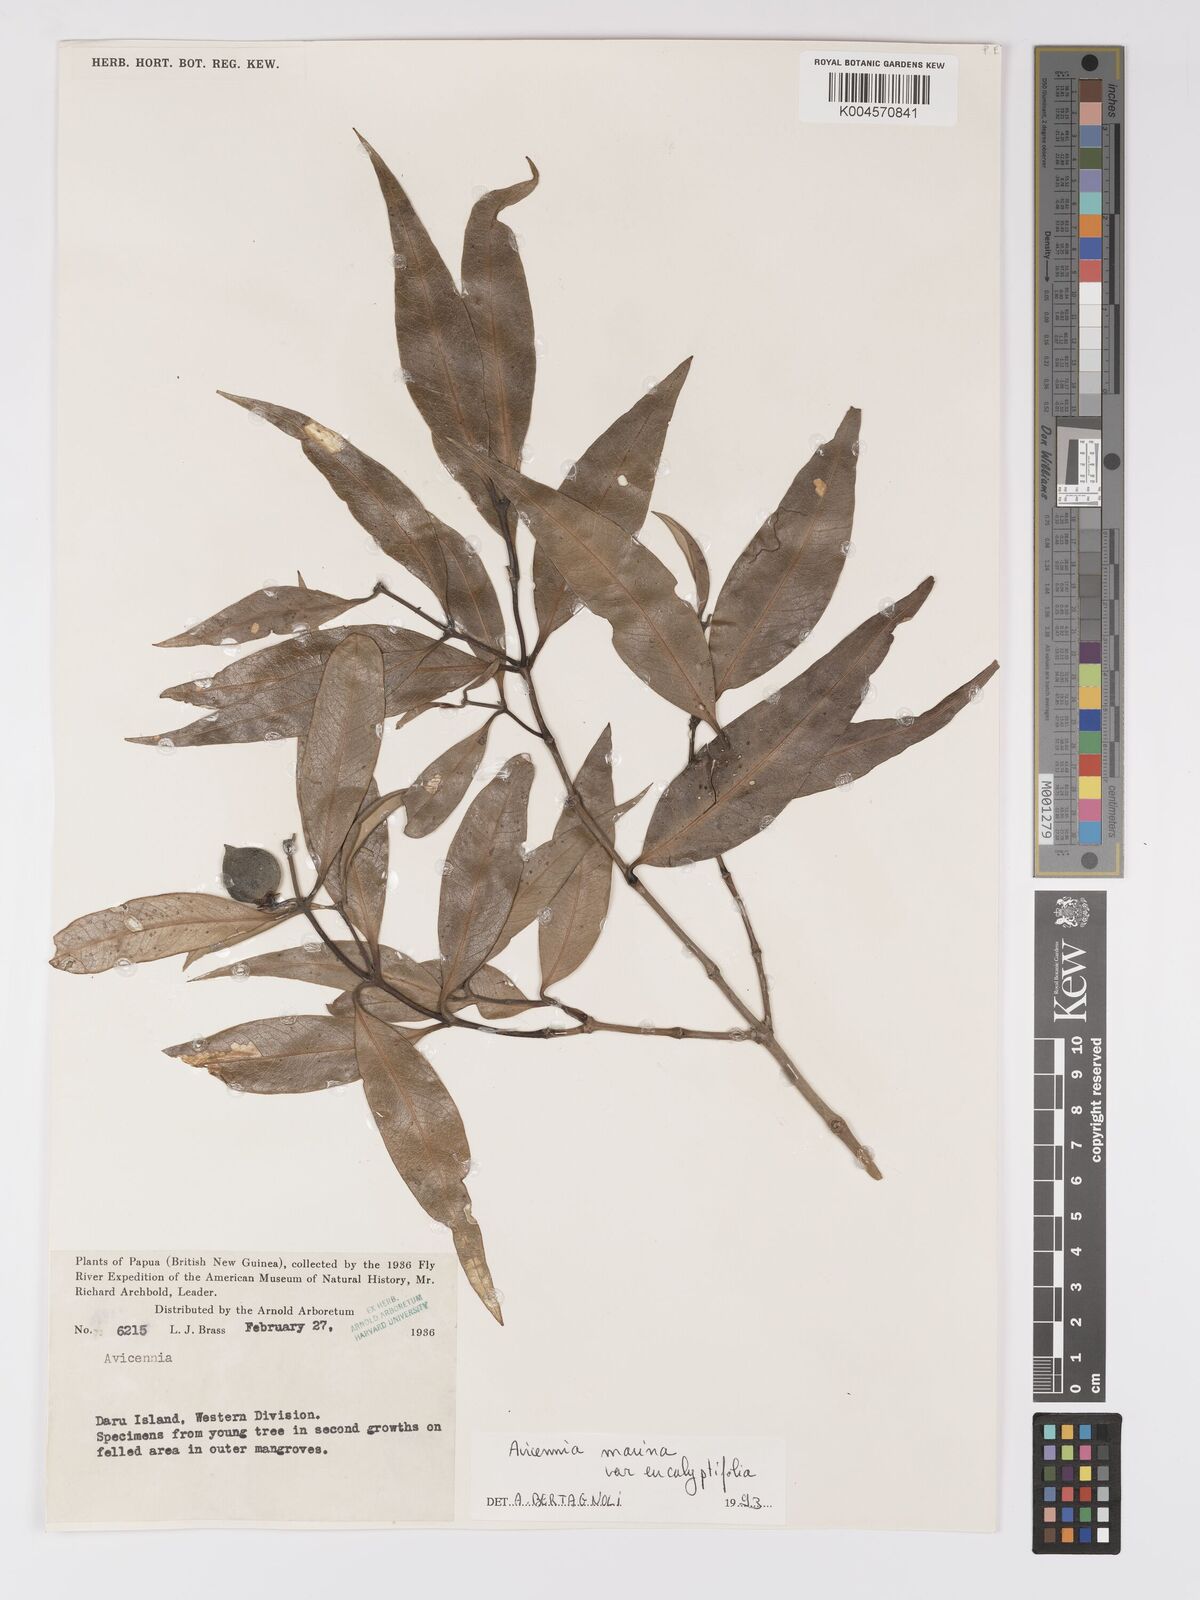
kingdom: Plantae
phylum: Tracheophyta
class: Magnoliopsida
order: Lamiales
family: Acanthaceae
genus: Avicennia
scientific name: Avicennia marina
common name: Gray mangrove
